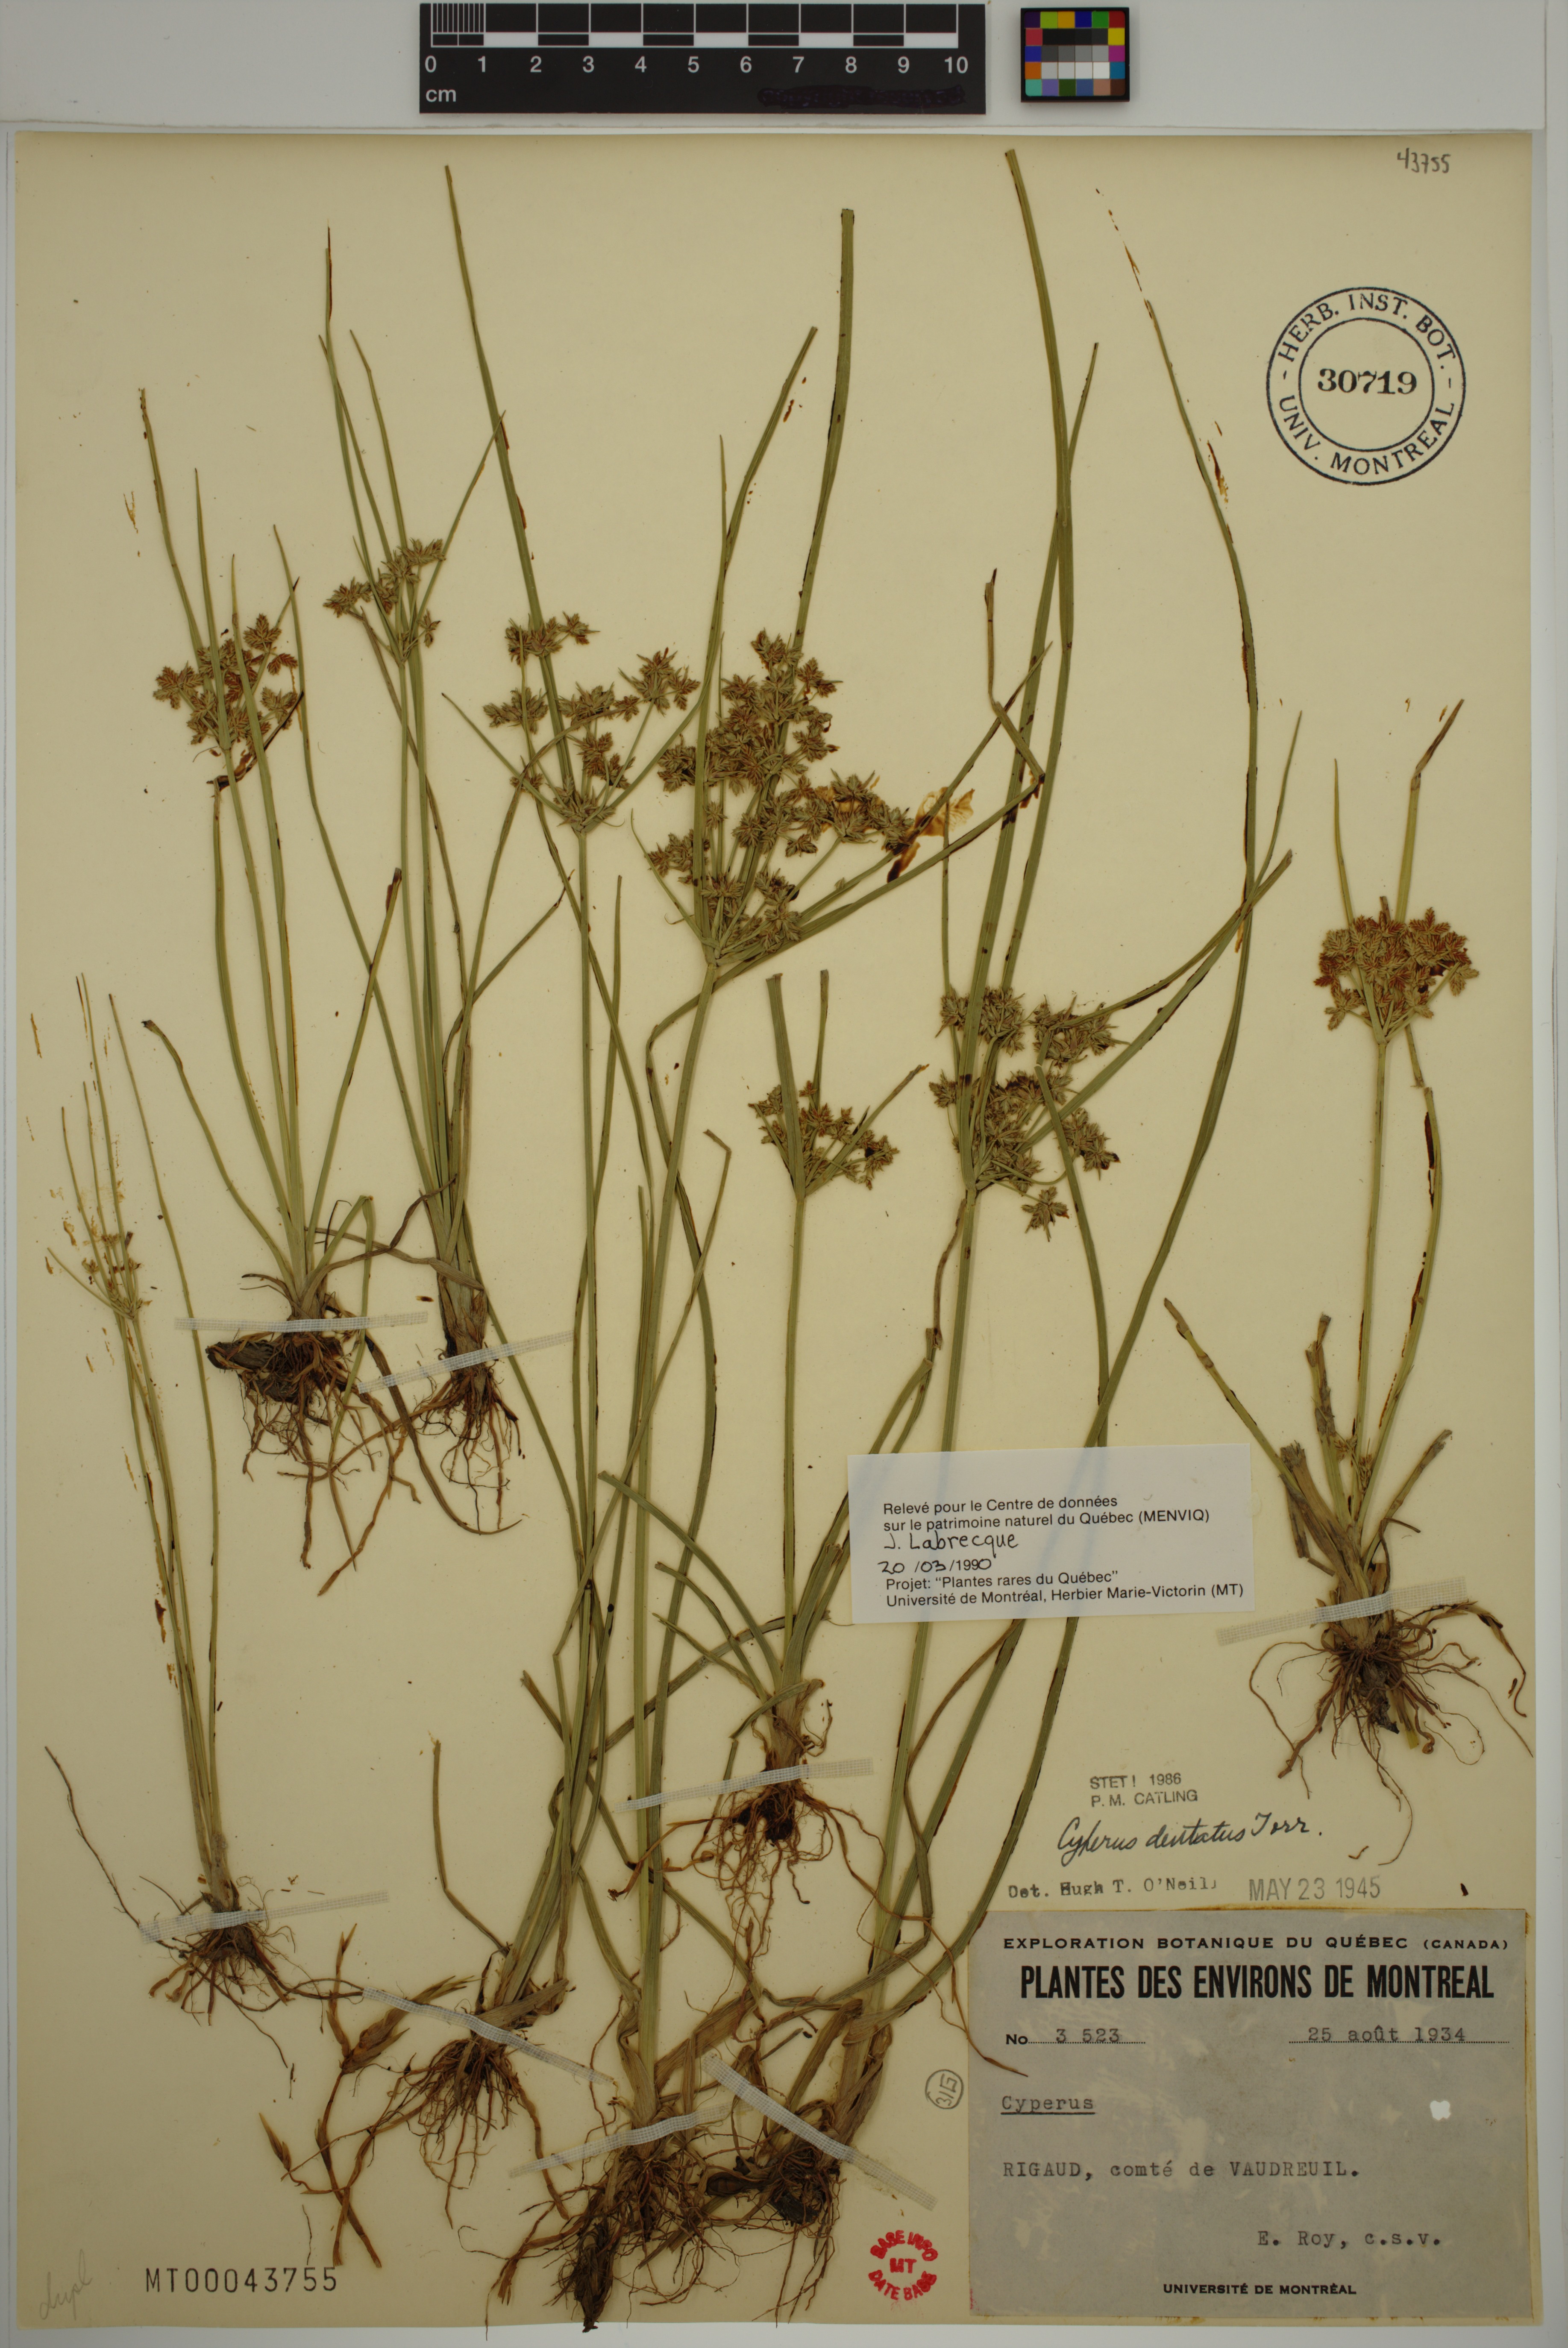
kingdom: Plantae
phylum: Tracheophyta
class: Liliopsida
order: Poales
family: Cyperaceae
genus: Cyperus
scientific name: Cyperus dentatus
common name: Dentate umbrella sedge
